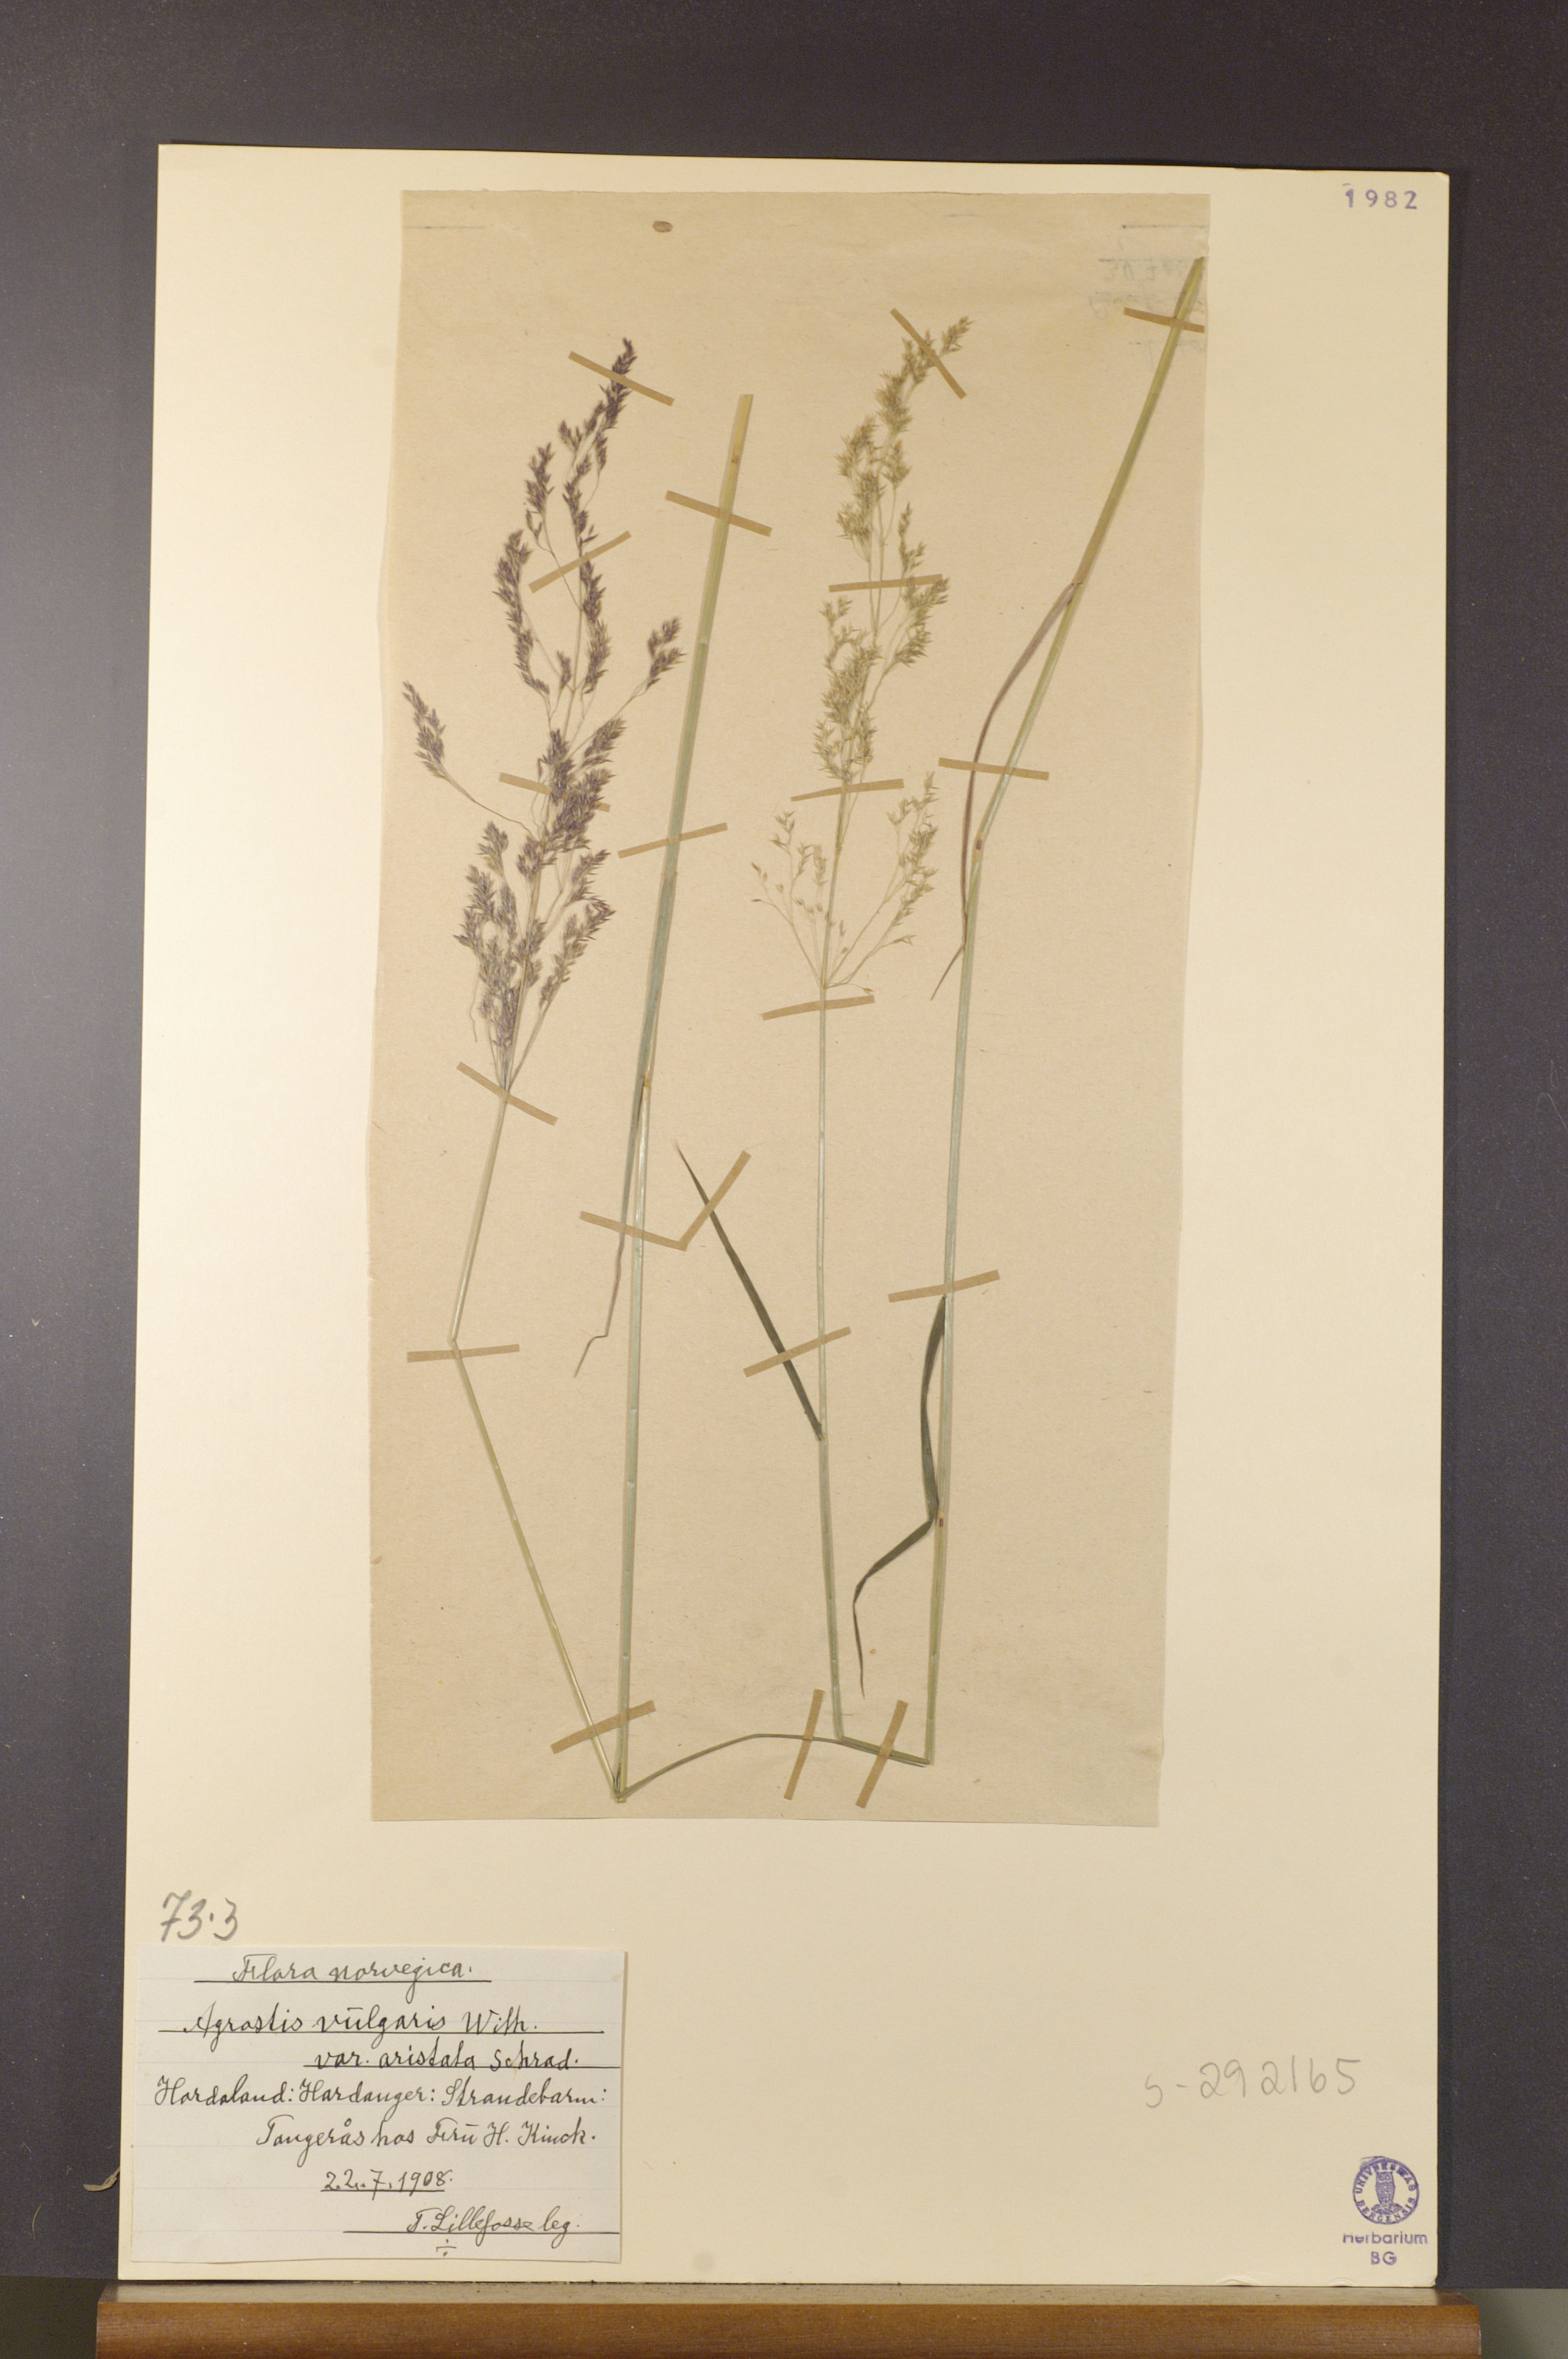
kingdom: Plantae
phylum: Tracheophyta
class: Liliopsida
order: Poales
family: Poaceae
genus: Agrostis
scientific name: Agrostis capillaris
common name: Colonial bentgrass
